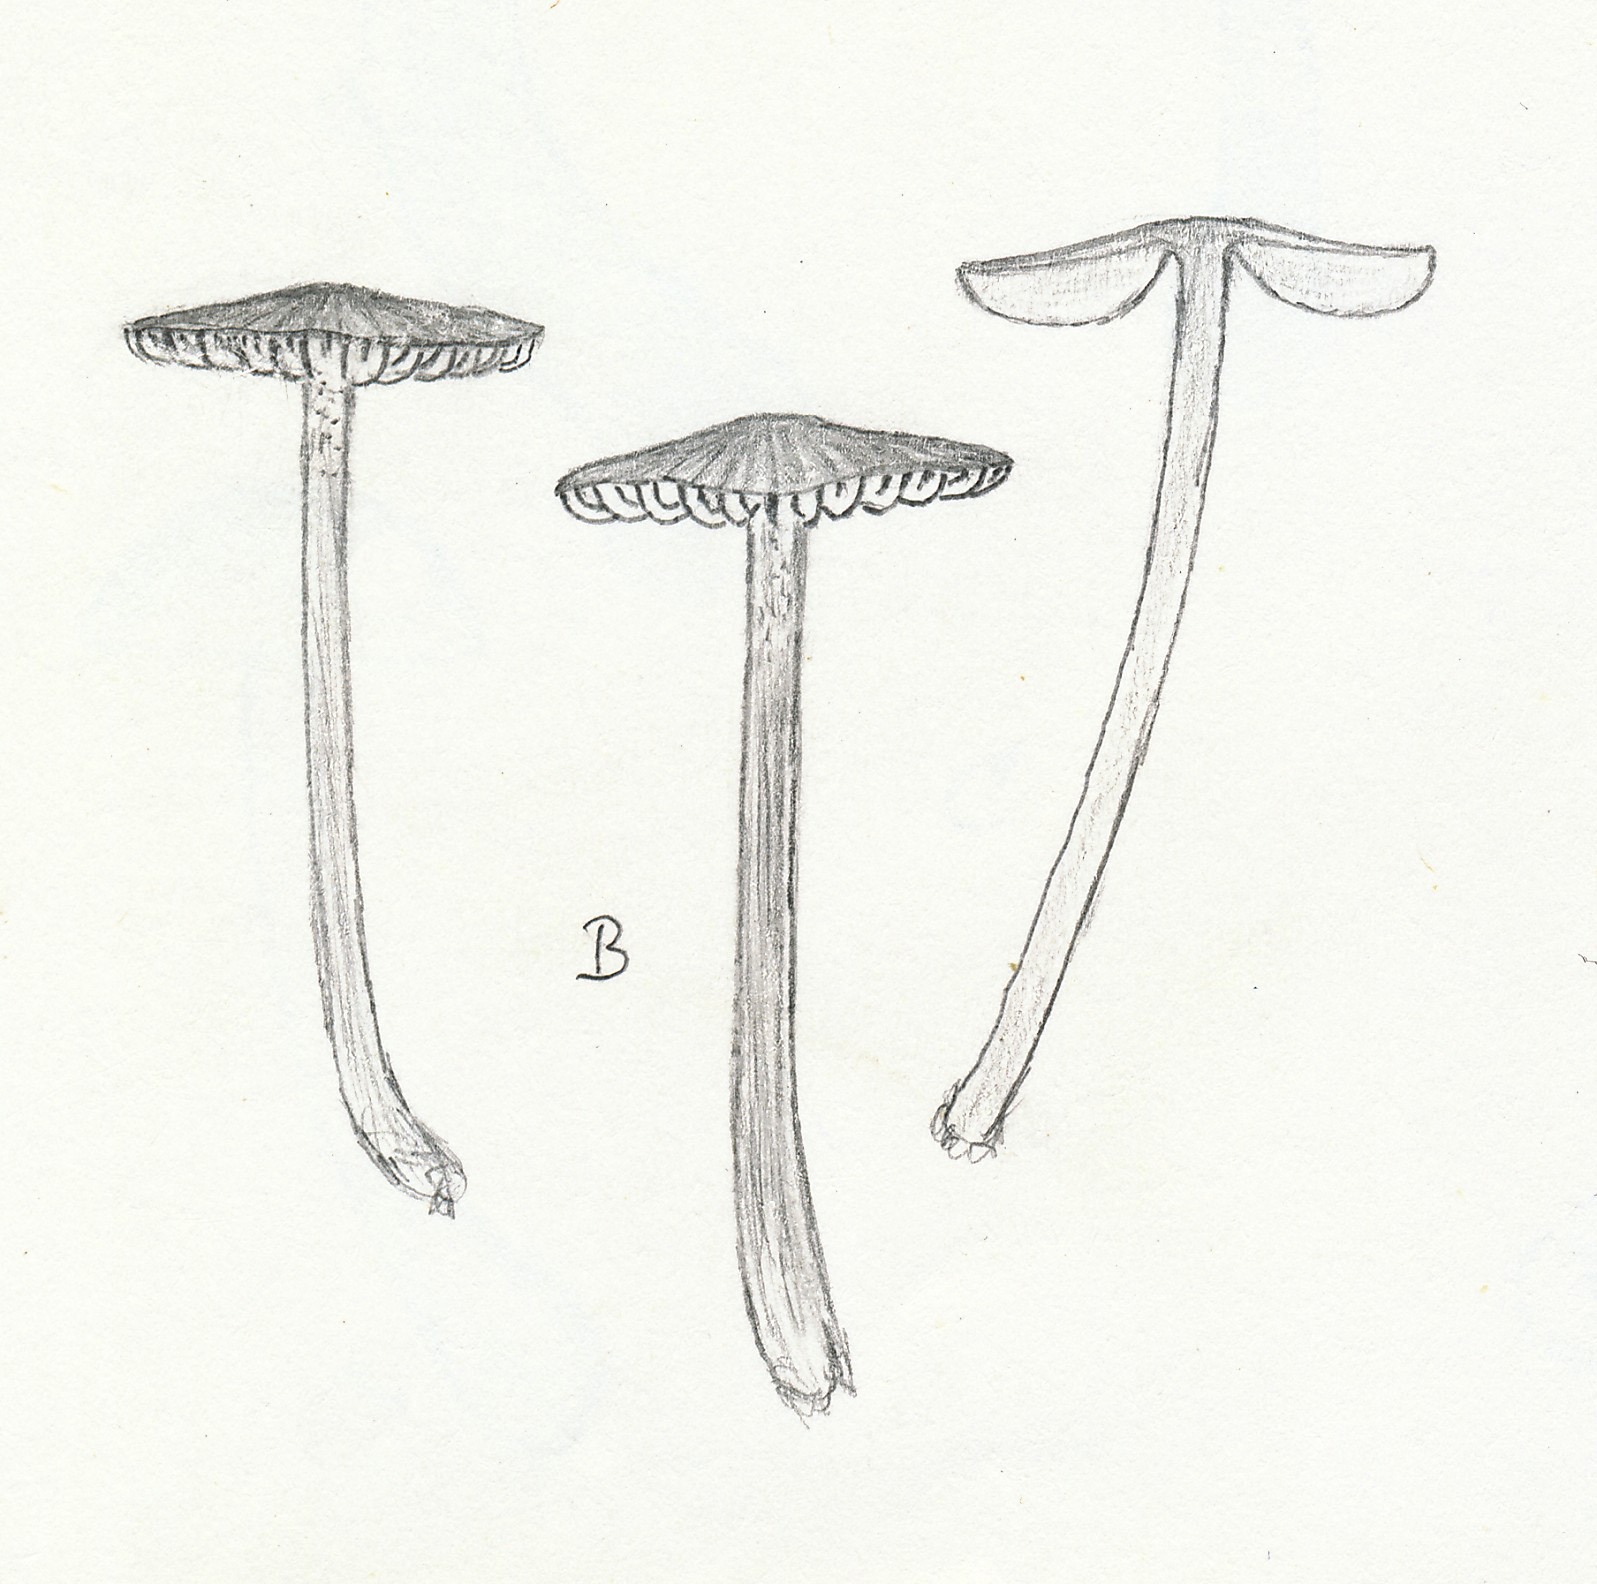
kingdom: Fungi
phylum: Basidiomycota
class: Agaricomycetes
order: Agaricales
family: Entolomataceae
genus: Entoloma
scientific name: Entoloma cetratum
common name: voks-rødblad
